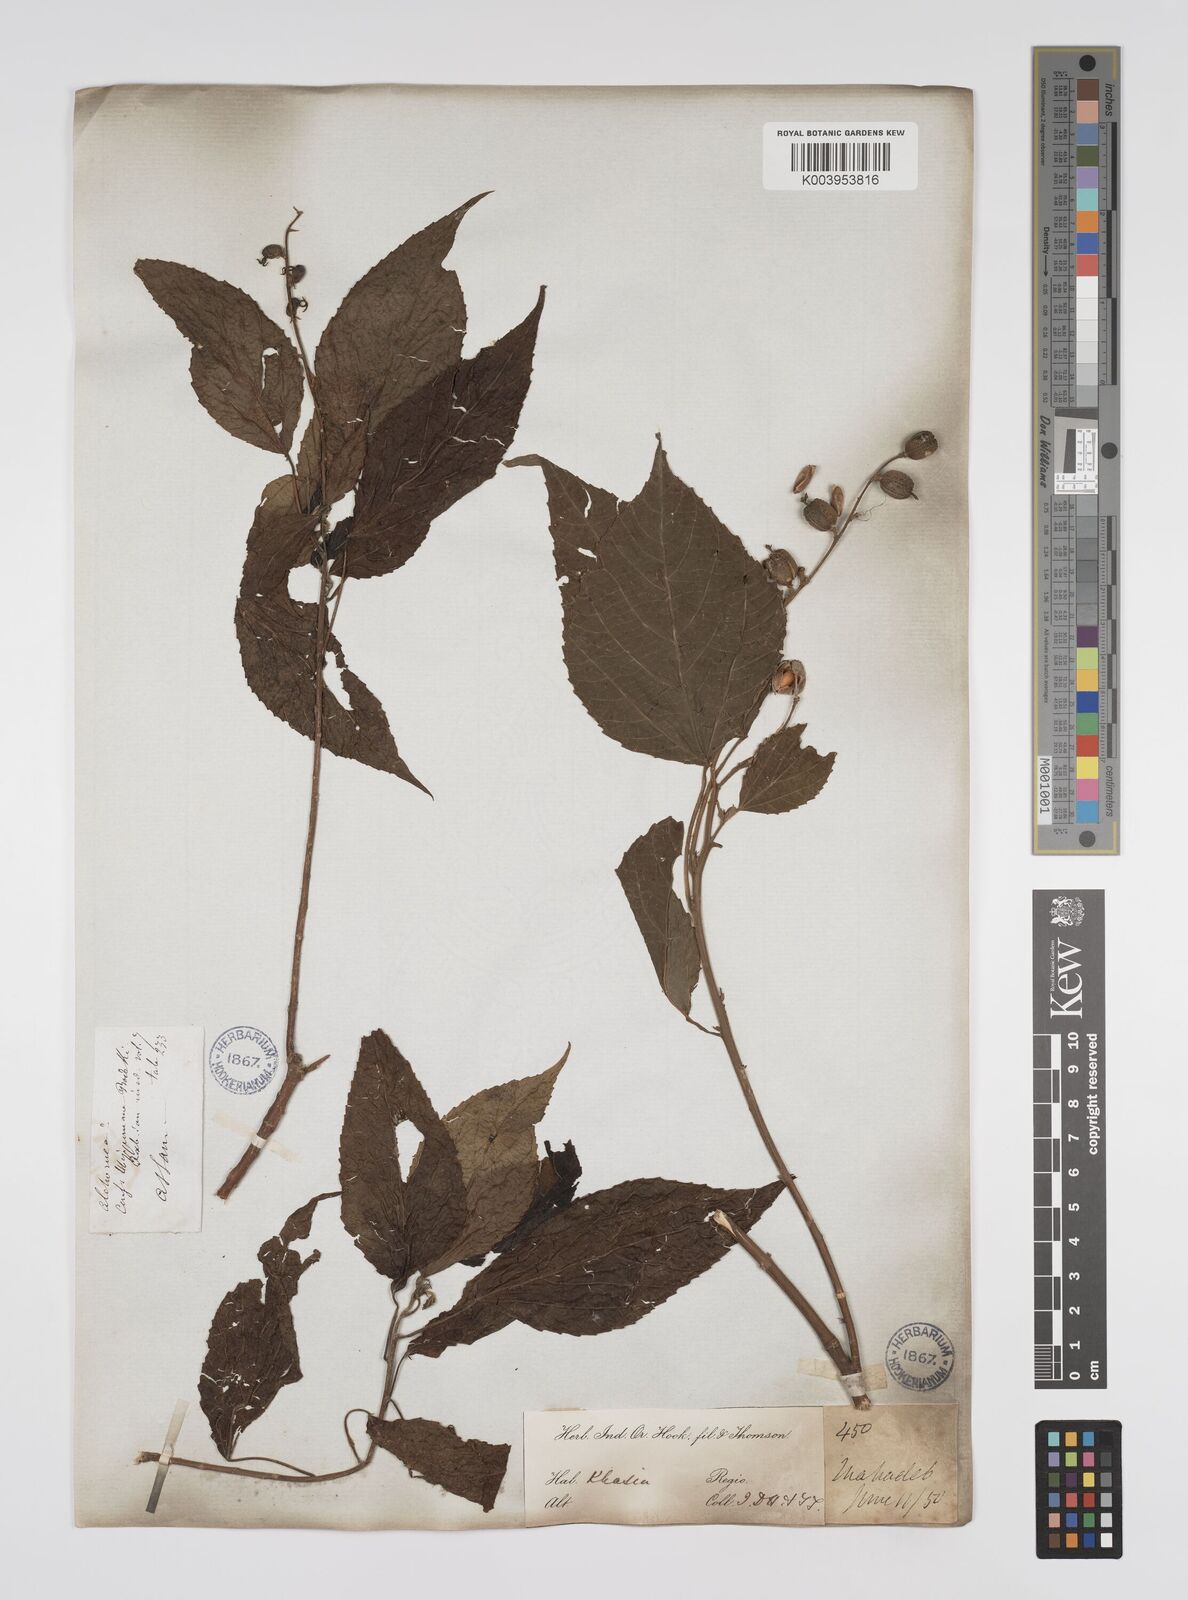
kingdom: Plantae
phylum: Tracheophyta
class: Magnoliopsida
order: Malpighiales
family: Euphorbiaceae
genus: Alchornea
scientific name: Alchornea tiliifolia
